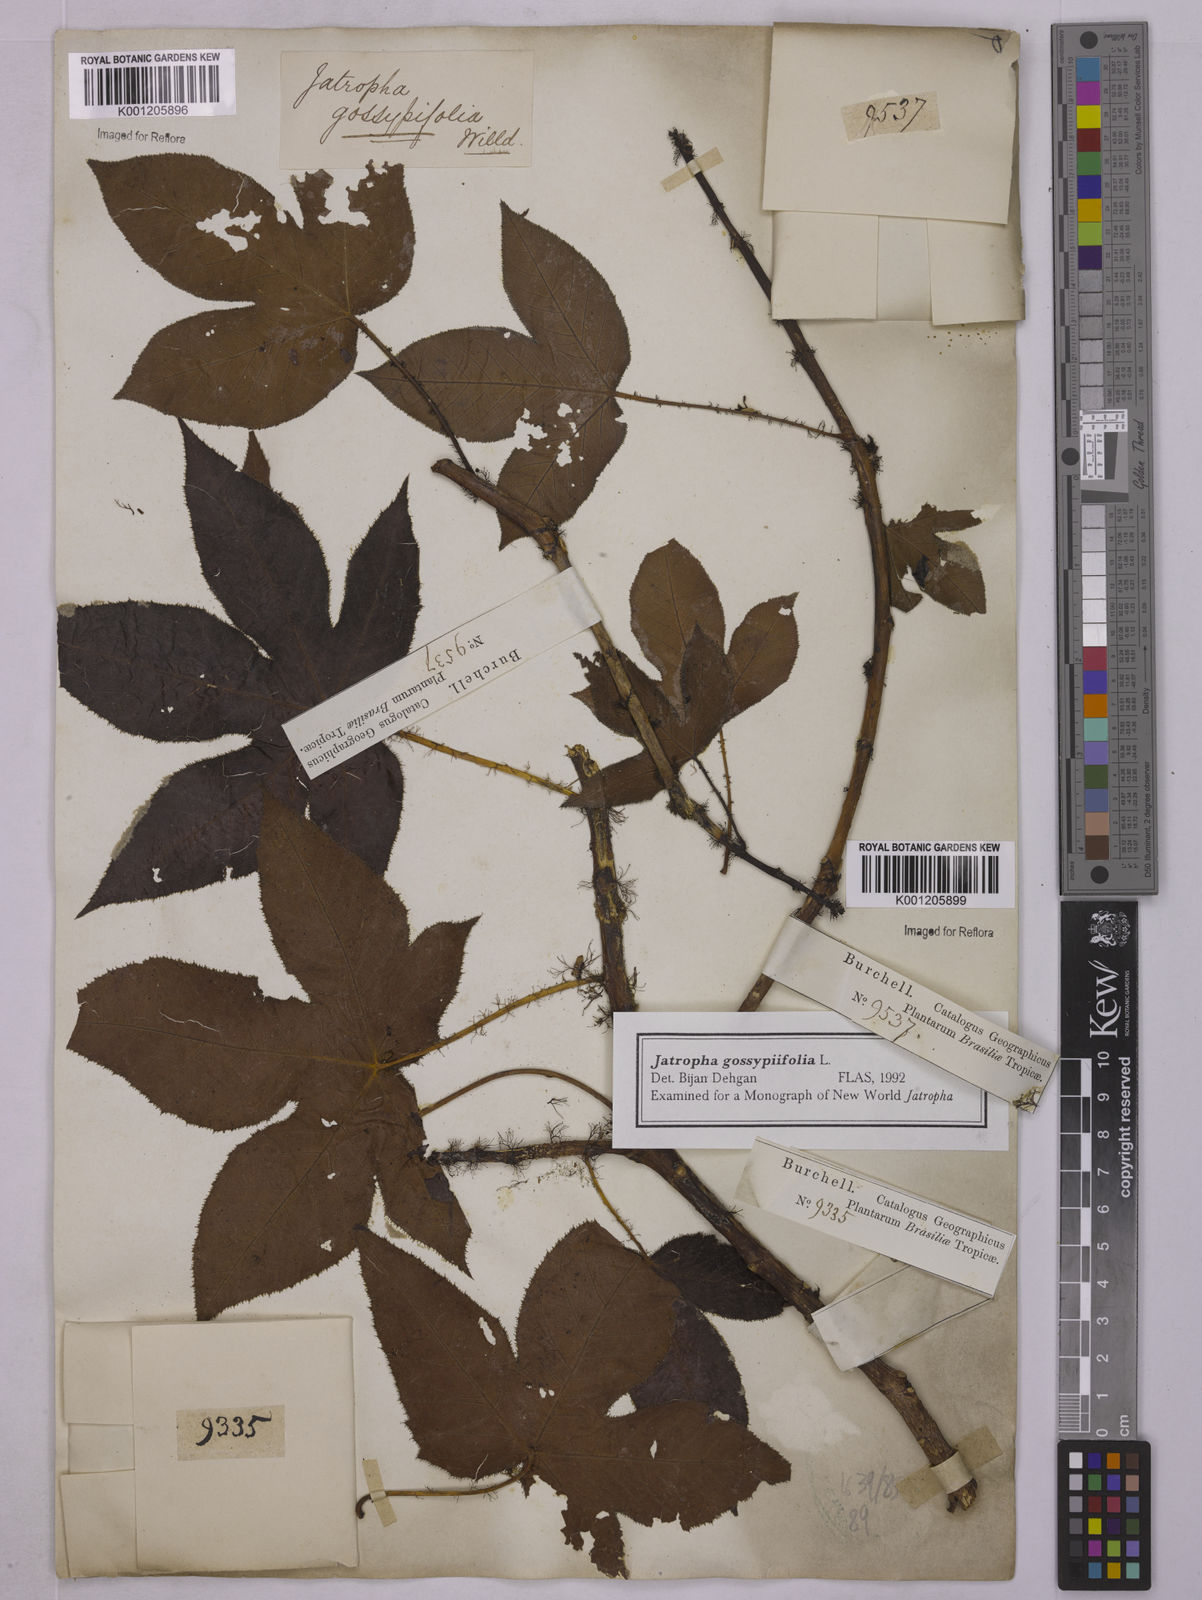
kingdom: Plantae
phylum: Tracheophyta
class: Magnoliopsida
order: Malpighiales
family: Euphorbiaceae
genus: Jatropha
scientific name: Jatropha gossypiifolia
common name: Bellyache bush
